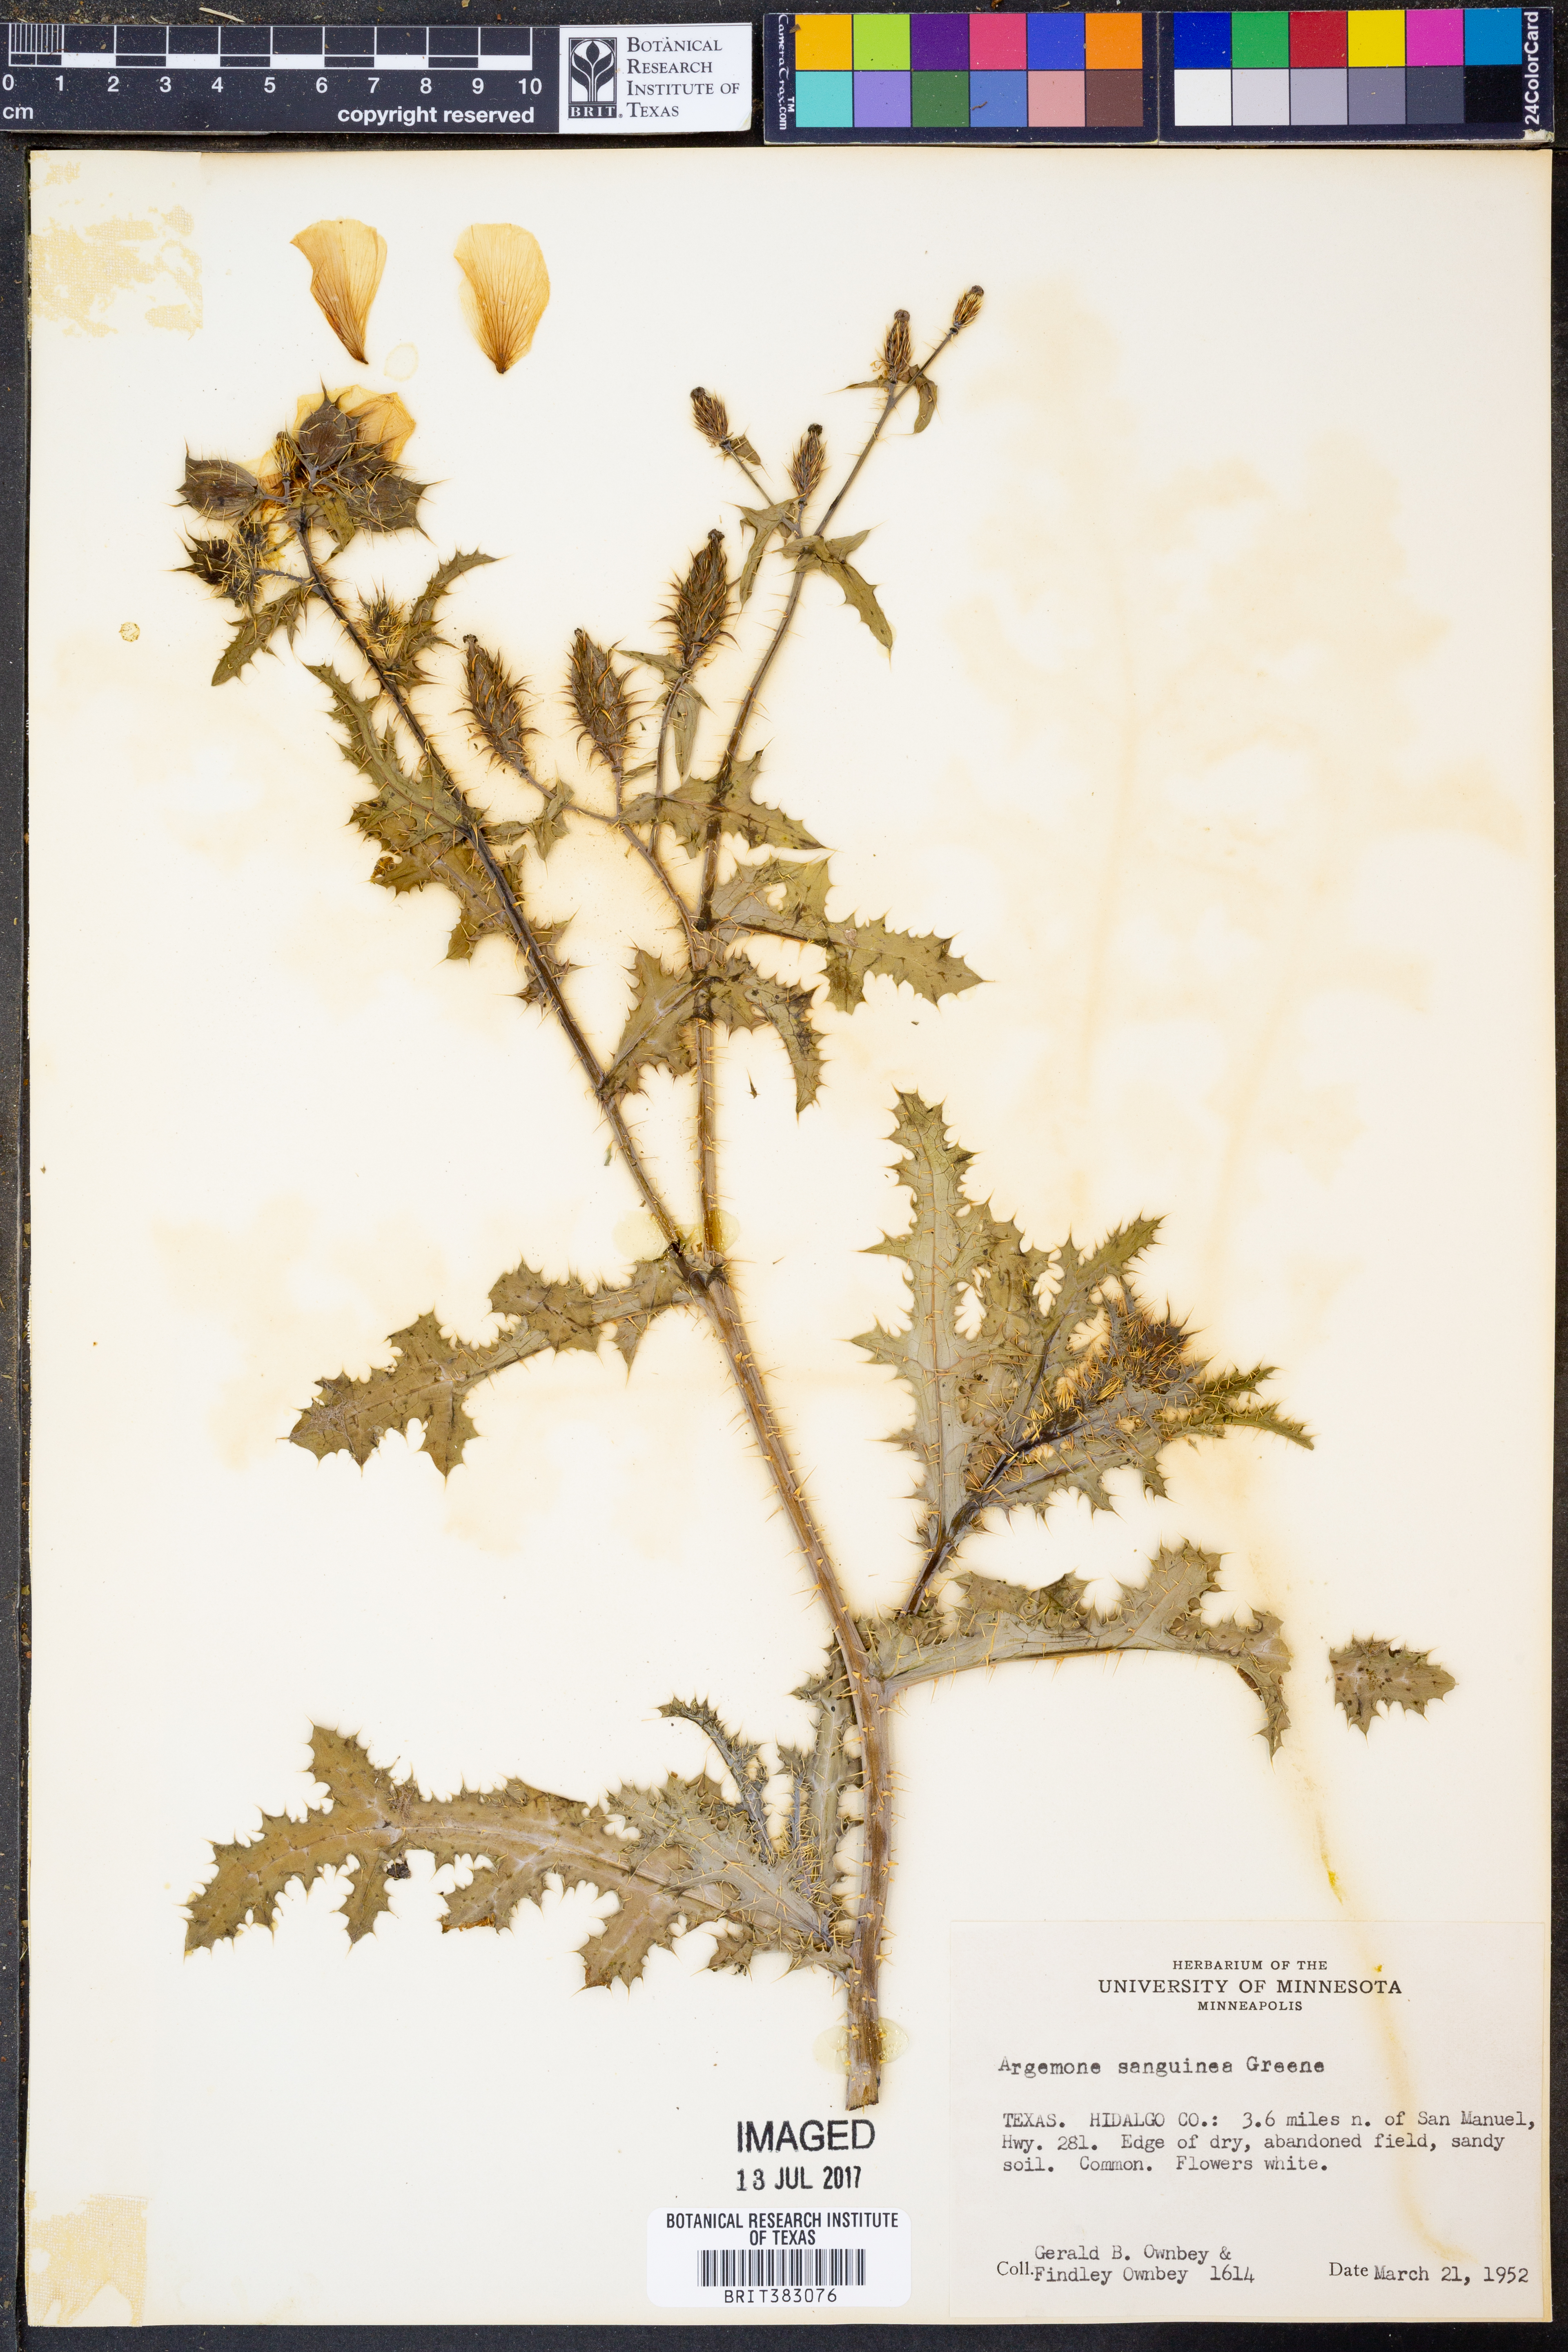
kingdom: Plantae
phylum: Tracheophyta
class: Magnoliopsida
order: Ranunculales
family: Papaveraceae
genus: Argemone
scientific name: Argemone sanguinea
